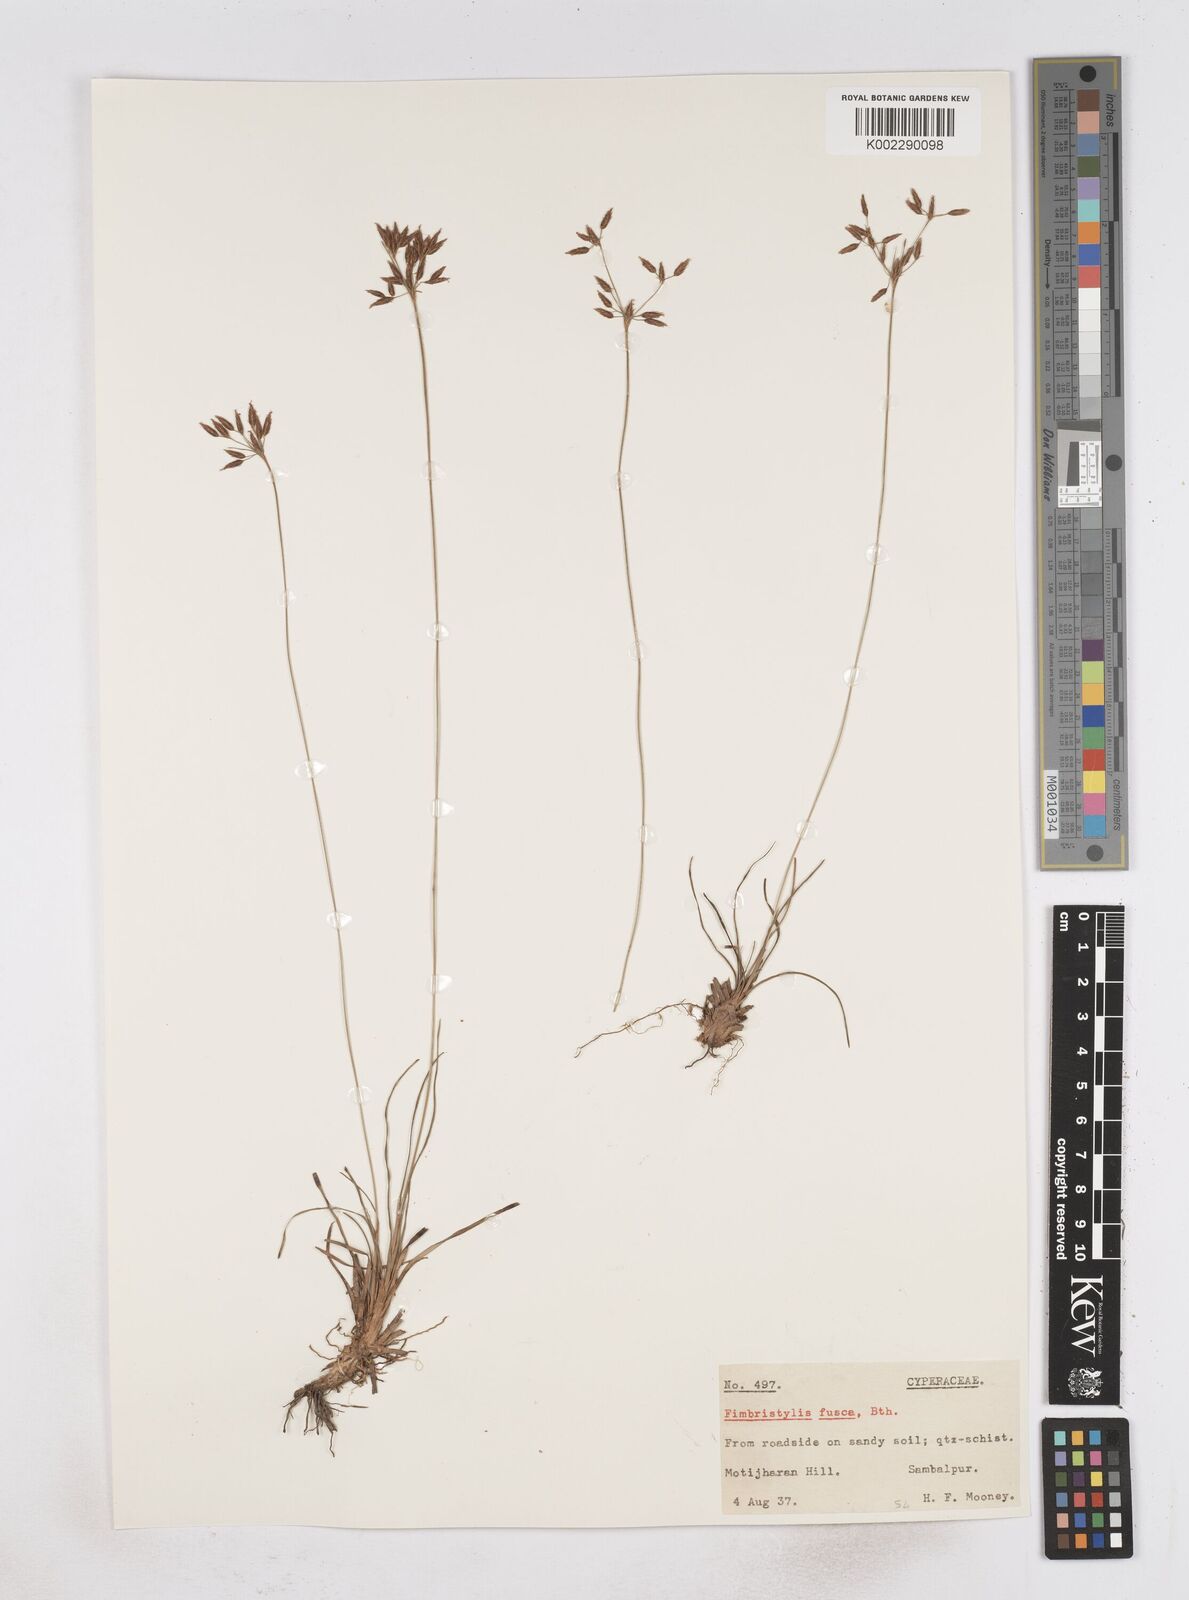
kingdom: Plantae
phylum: Tracheophyta
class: Liliopsida
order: Poales
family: Cyperaceae
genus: Fimbristylis
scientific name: Fimbristylis fusca
